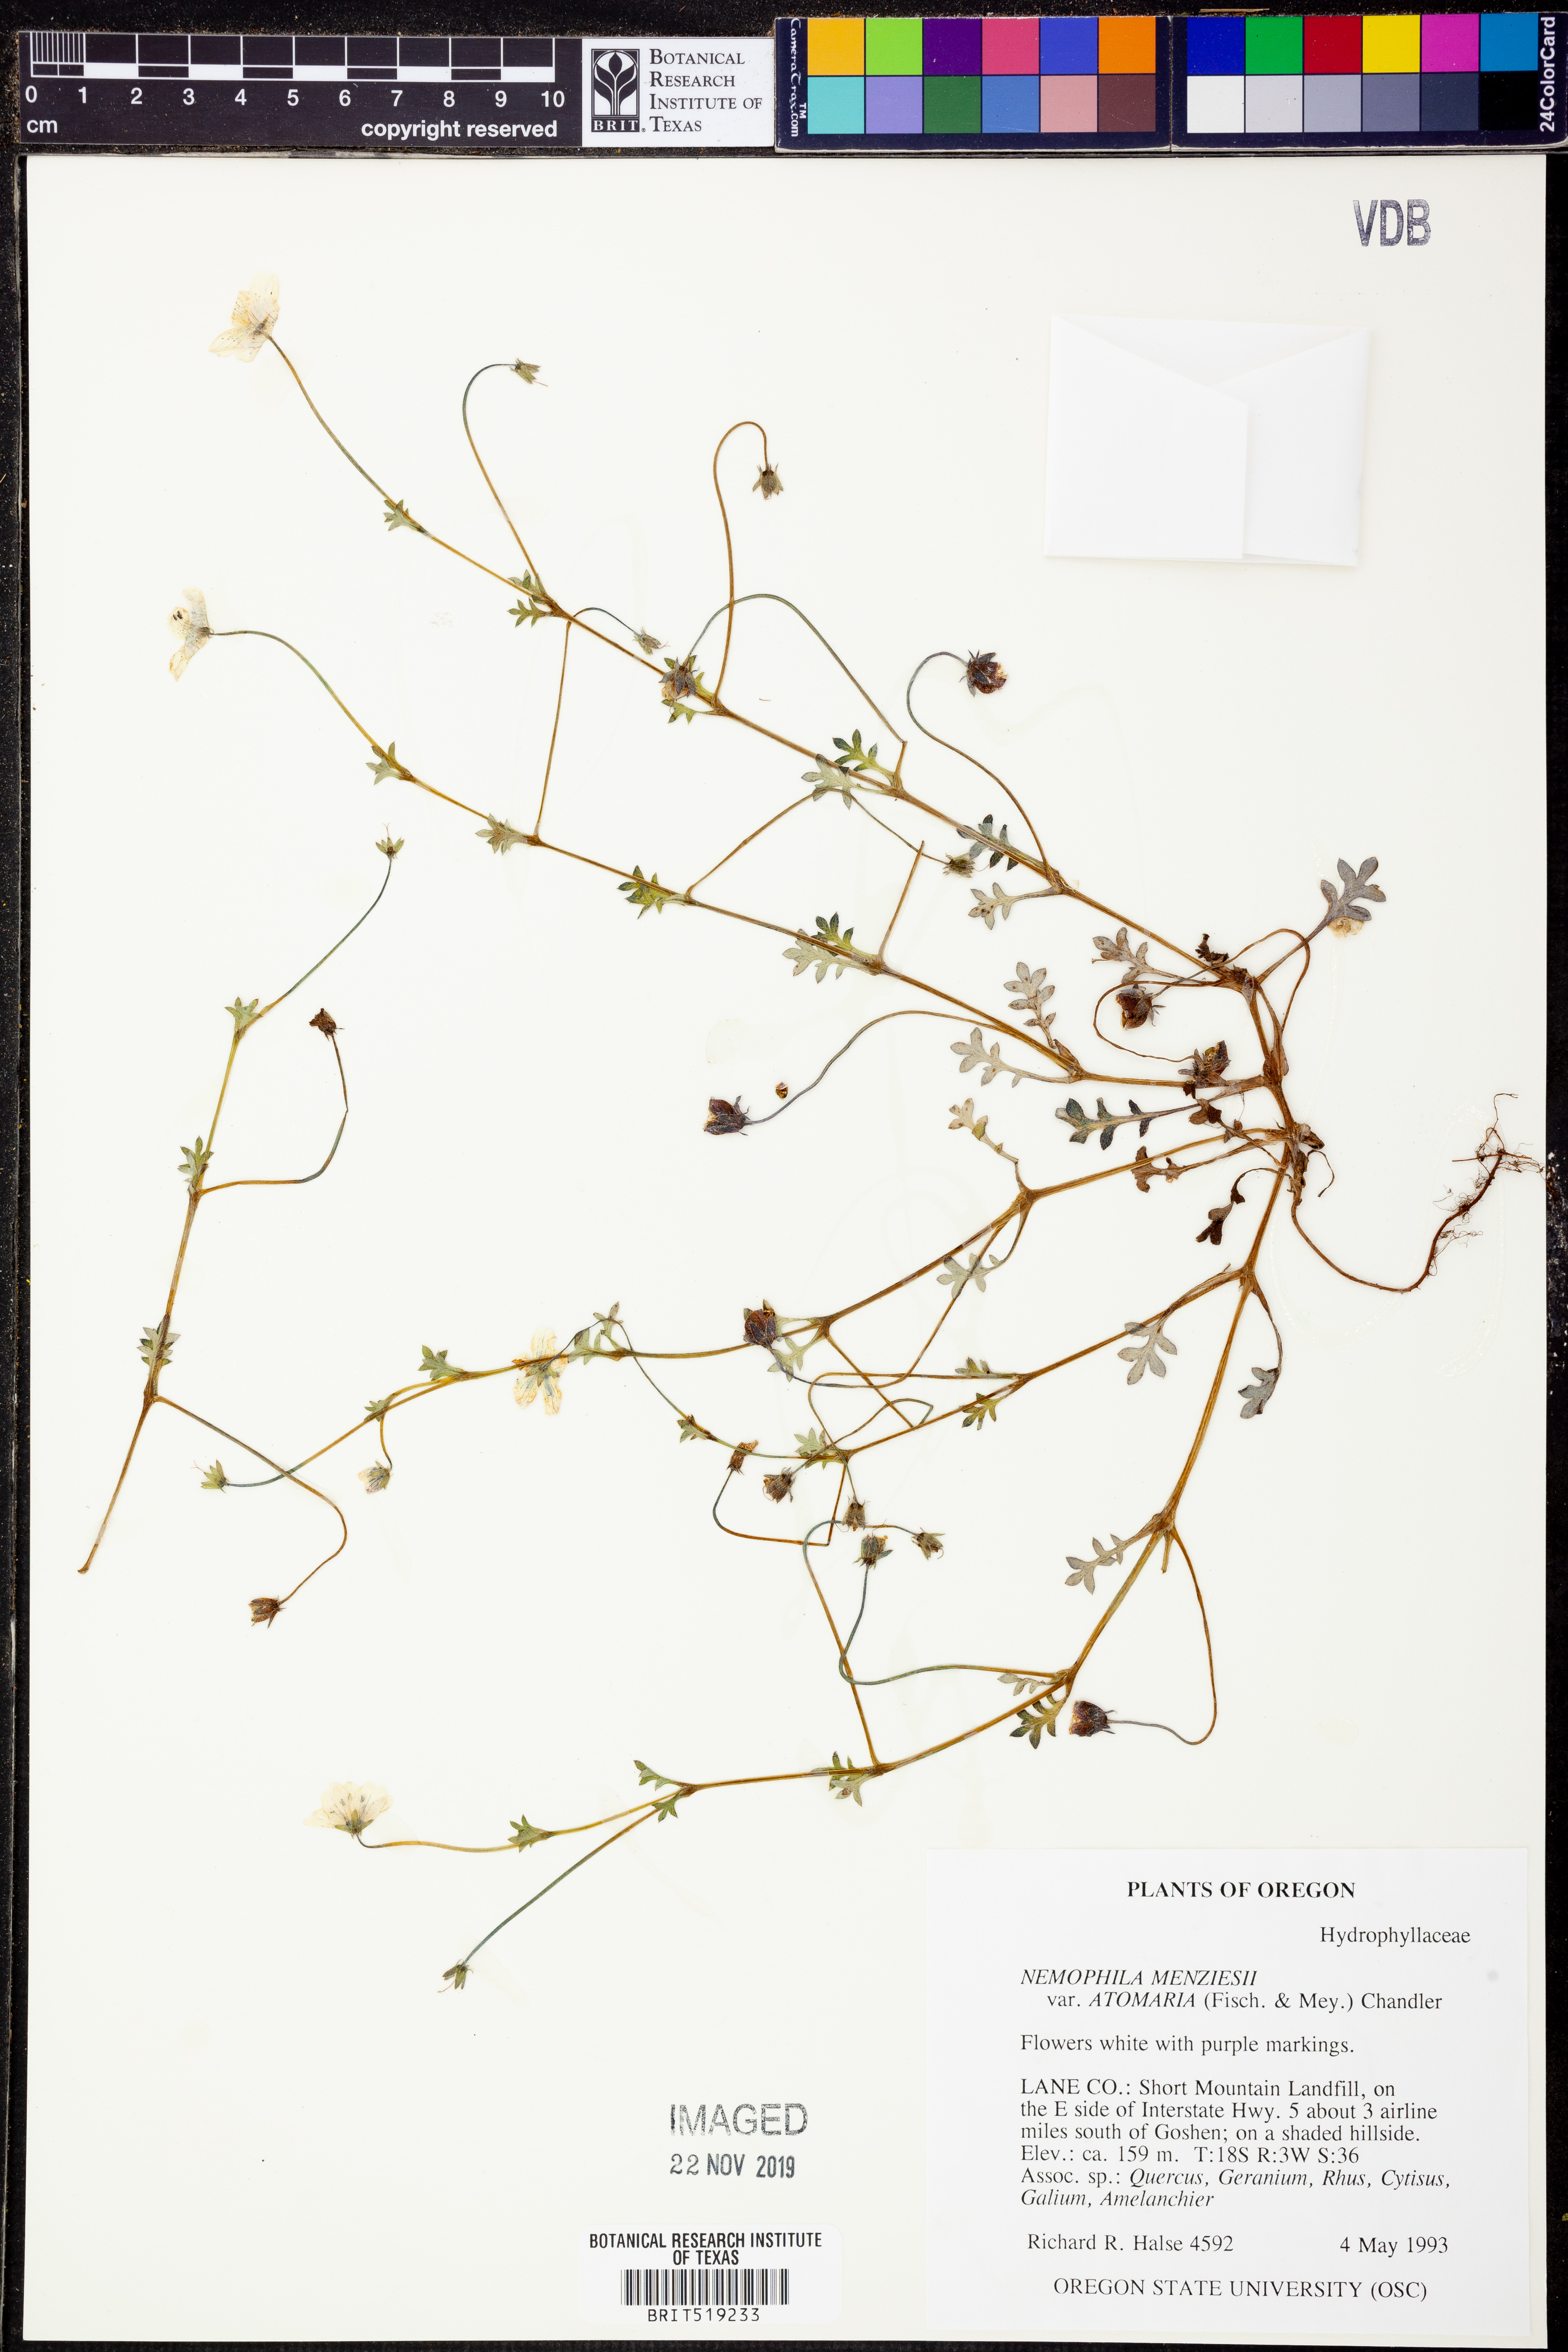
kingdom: Plantae
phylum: Tracheophyta
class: Magnoliopsida
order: Boraginales
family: Hydrophyllaceae
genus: Nemophila
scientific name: Nemophila menziesii
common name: Baby's-blue-eyes
